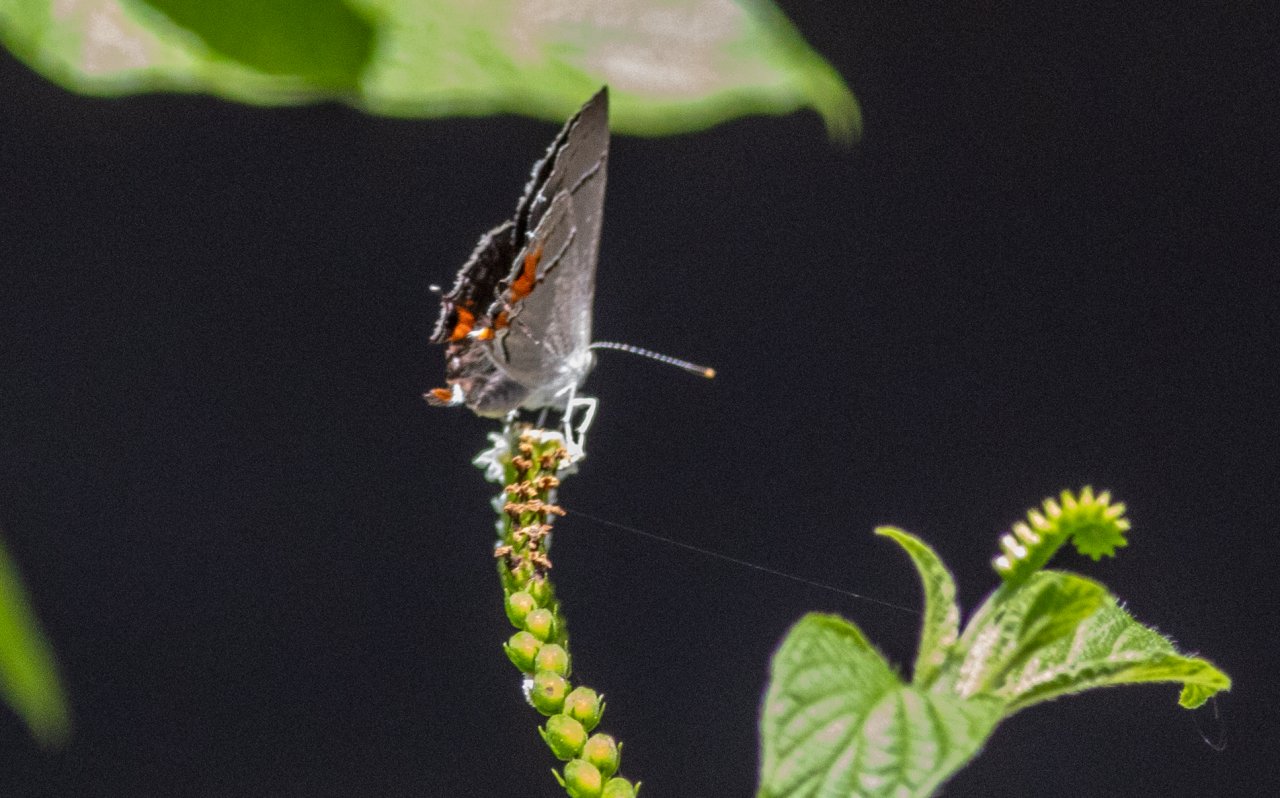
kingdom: Animalia
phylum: Arthropoda
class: Insecta
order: Lepidoptera
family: Lycaenidae
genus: Strymon
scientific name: Strymon melinus
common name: Gray Hairstreak
